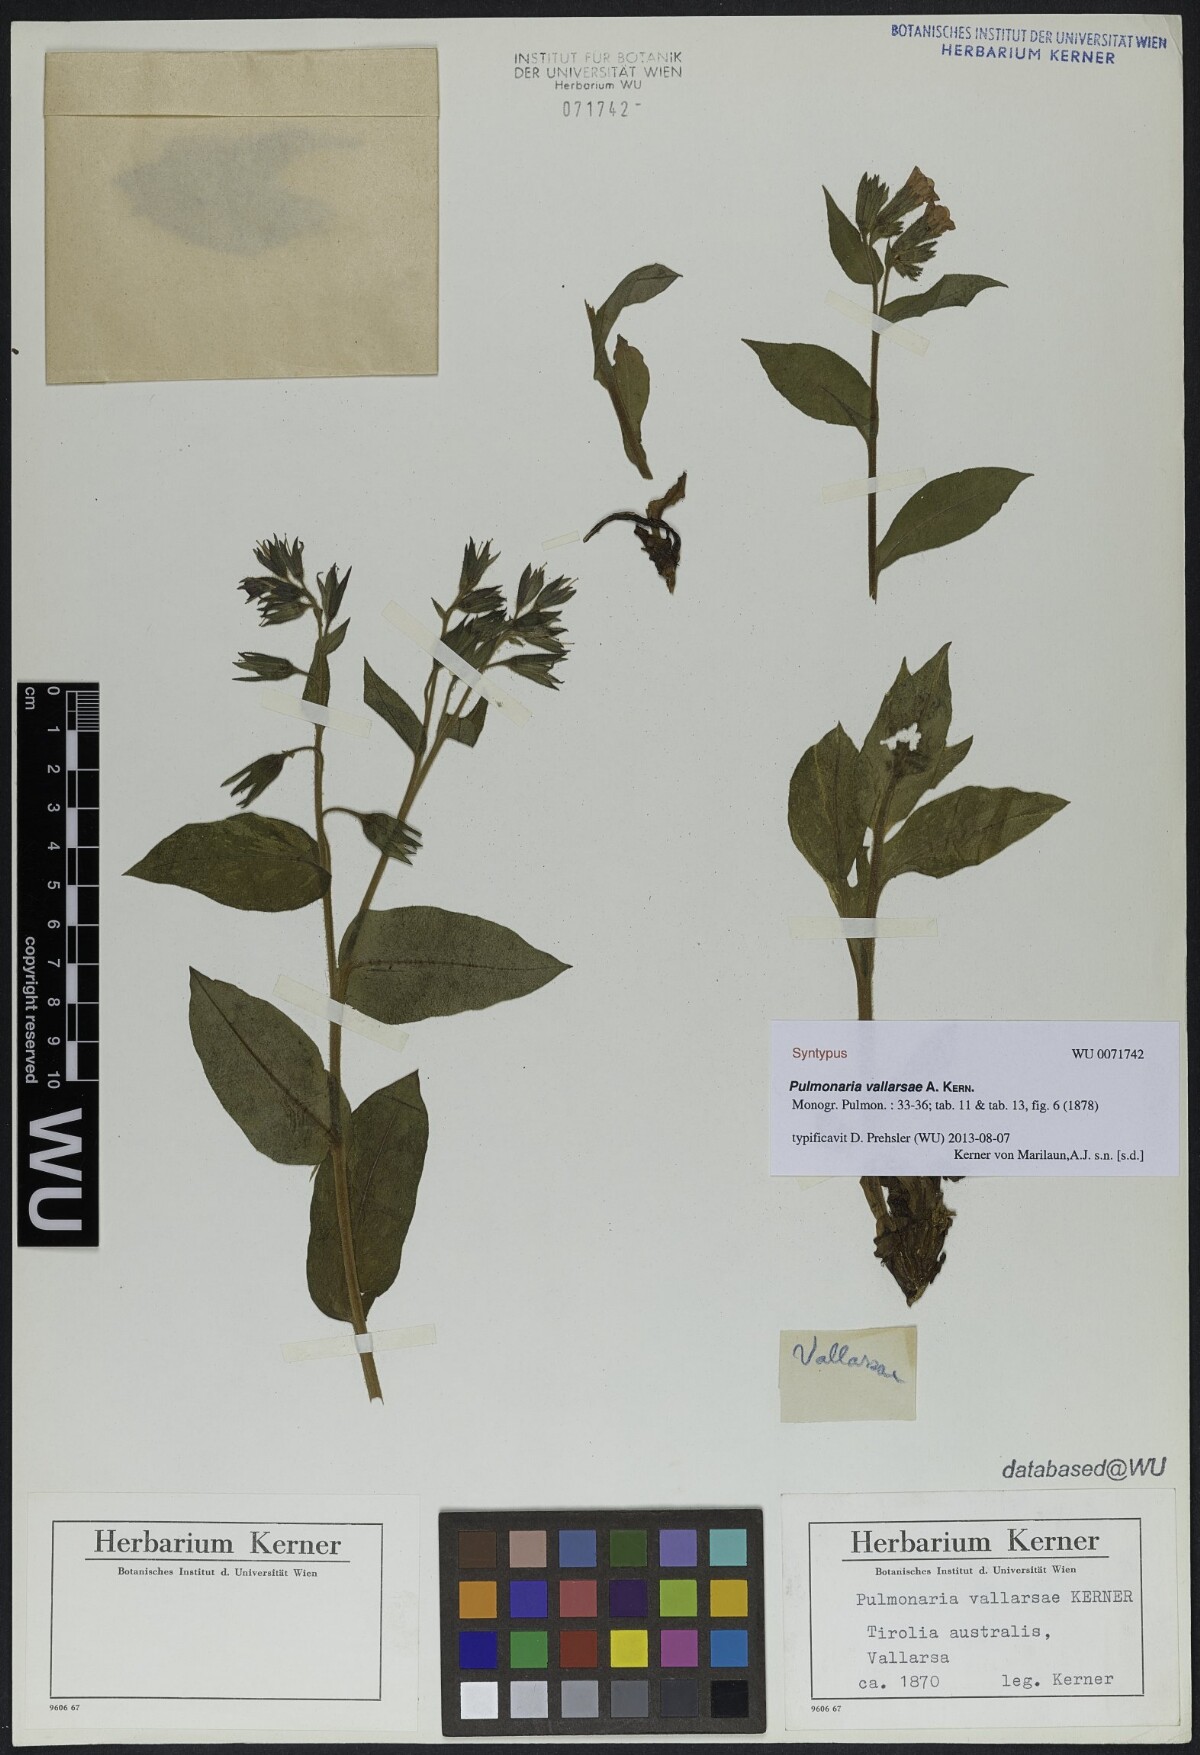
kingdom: Plantae
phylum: Tracheophyta
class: Magnoliopsida
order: Boraginales
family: Boraginaceae
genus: Pulmonaria
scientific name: Pulmonaria hirta
